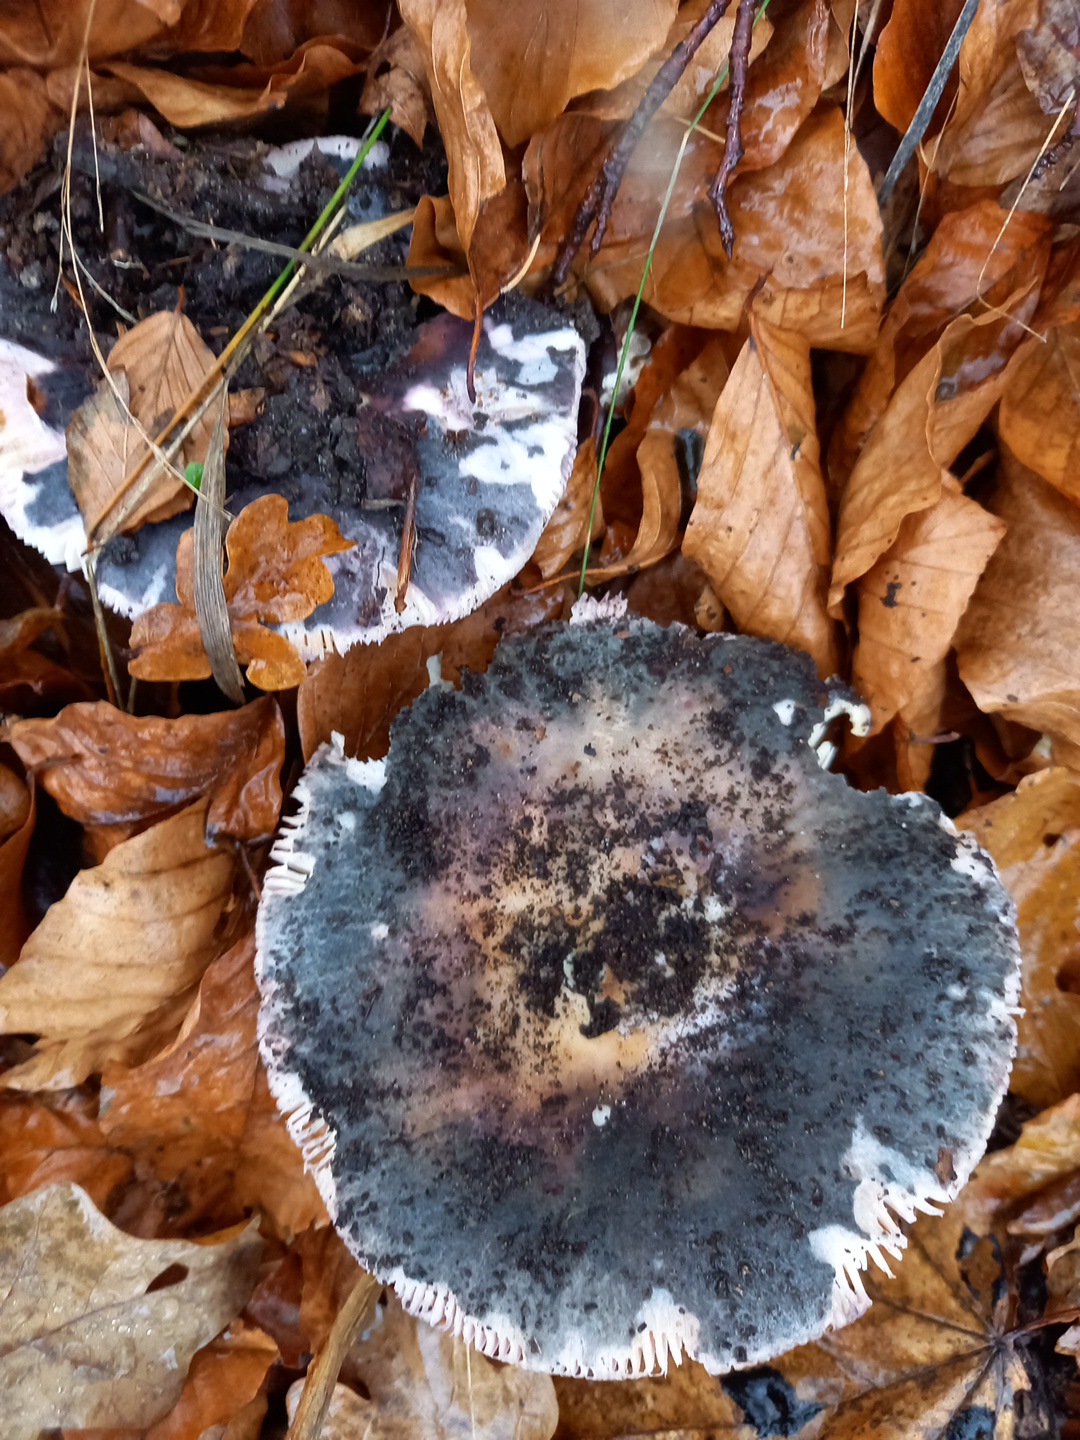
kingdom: Fungi
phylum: Basidiomycota
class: Agaricomycetes
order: Russulales
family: Russulaceae
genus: Russula
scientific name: Russula
